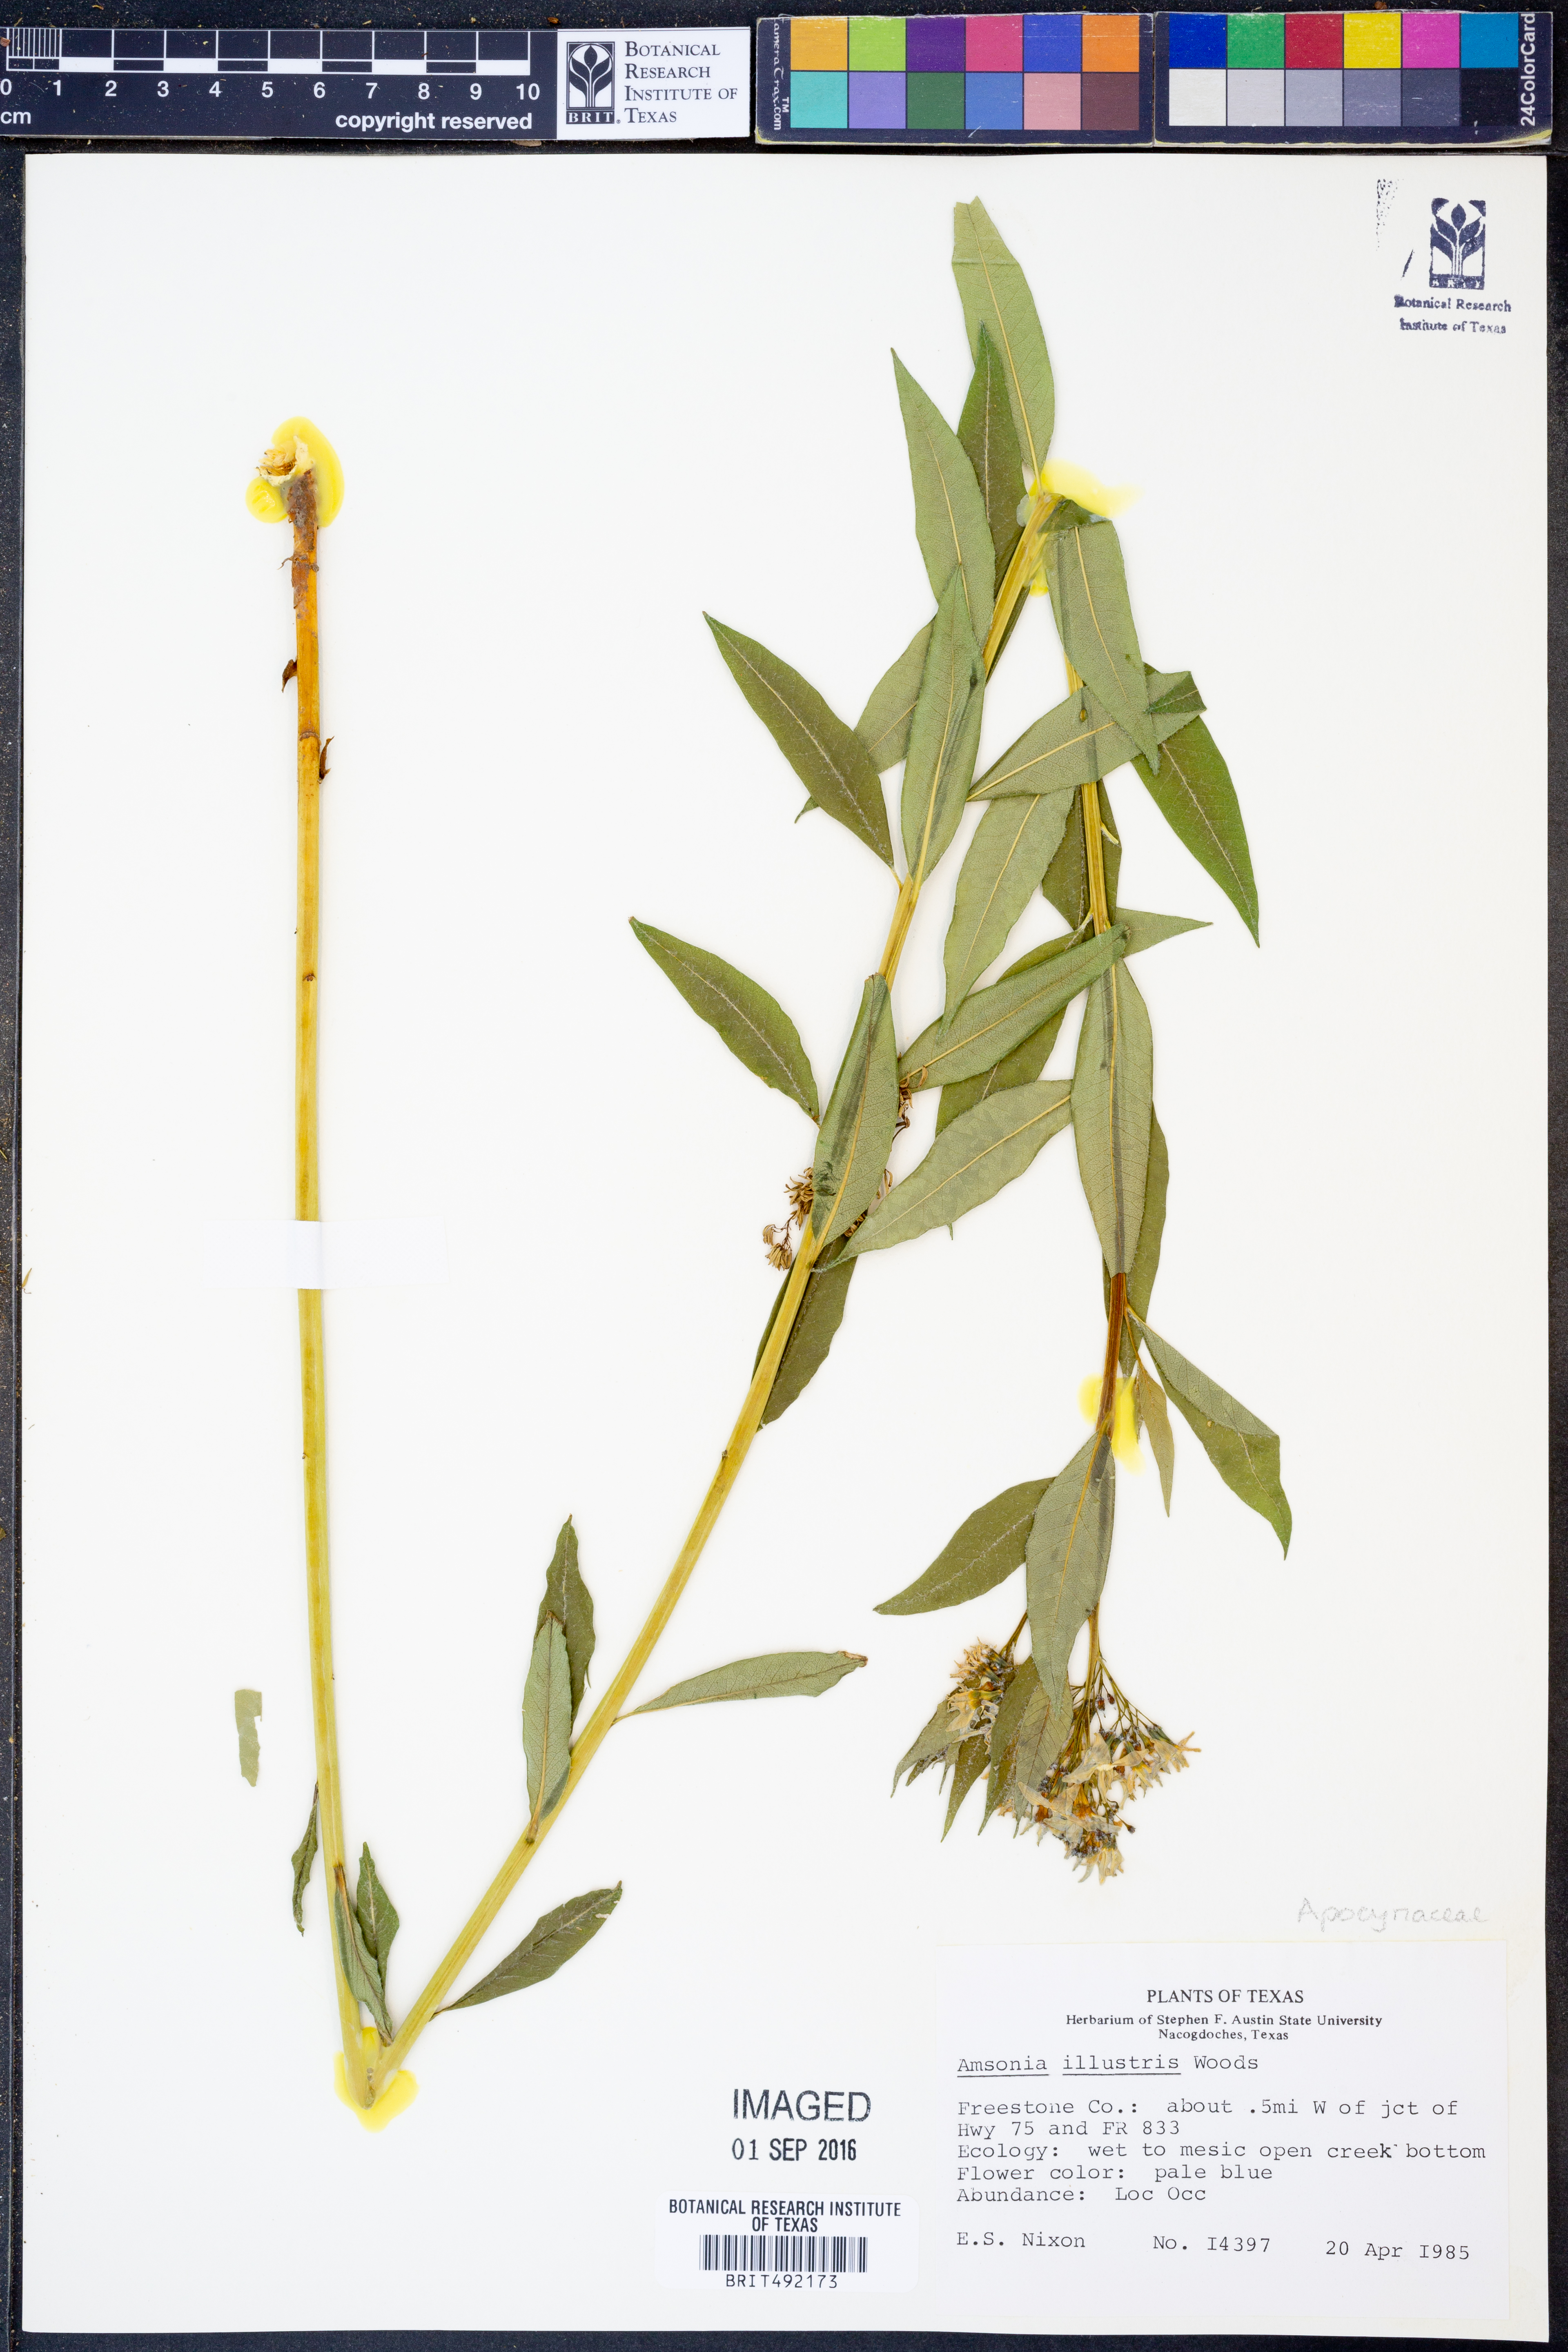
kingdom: Plantae
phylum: Tracheophyta
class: Magnoliopsida
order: Gentianales
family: Apocynaceae
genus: Amsonia
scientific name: Amsonia tabernaemontana
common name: Texas-star
